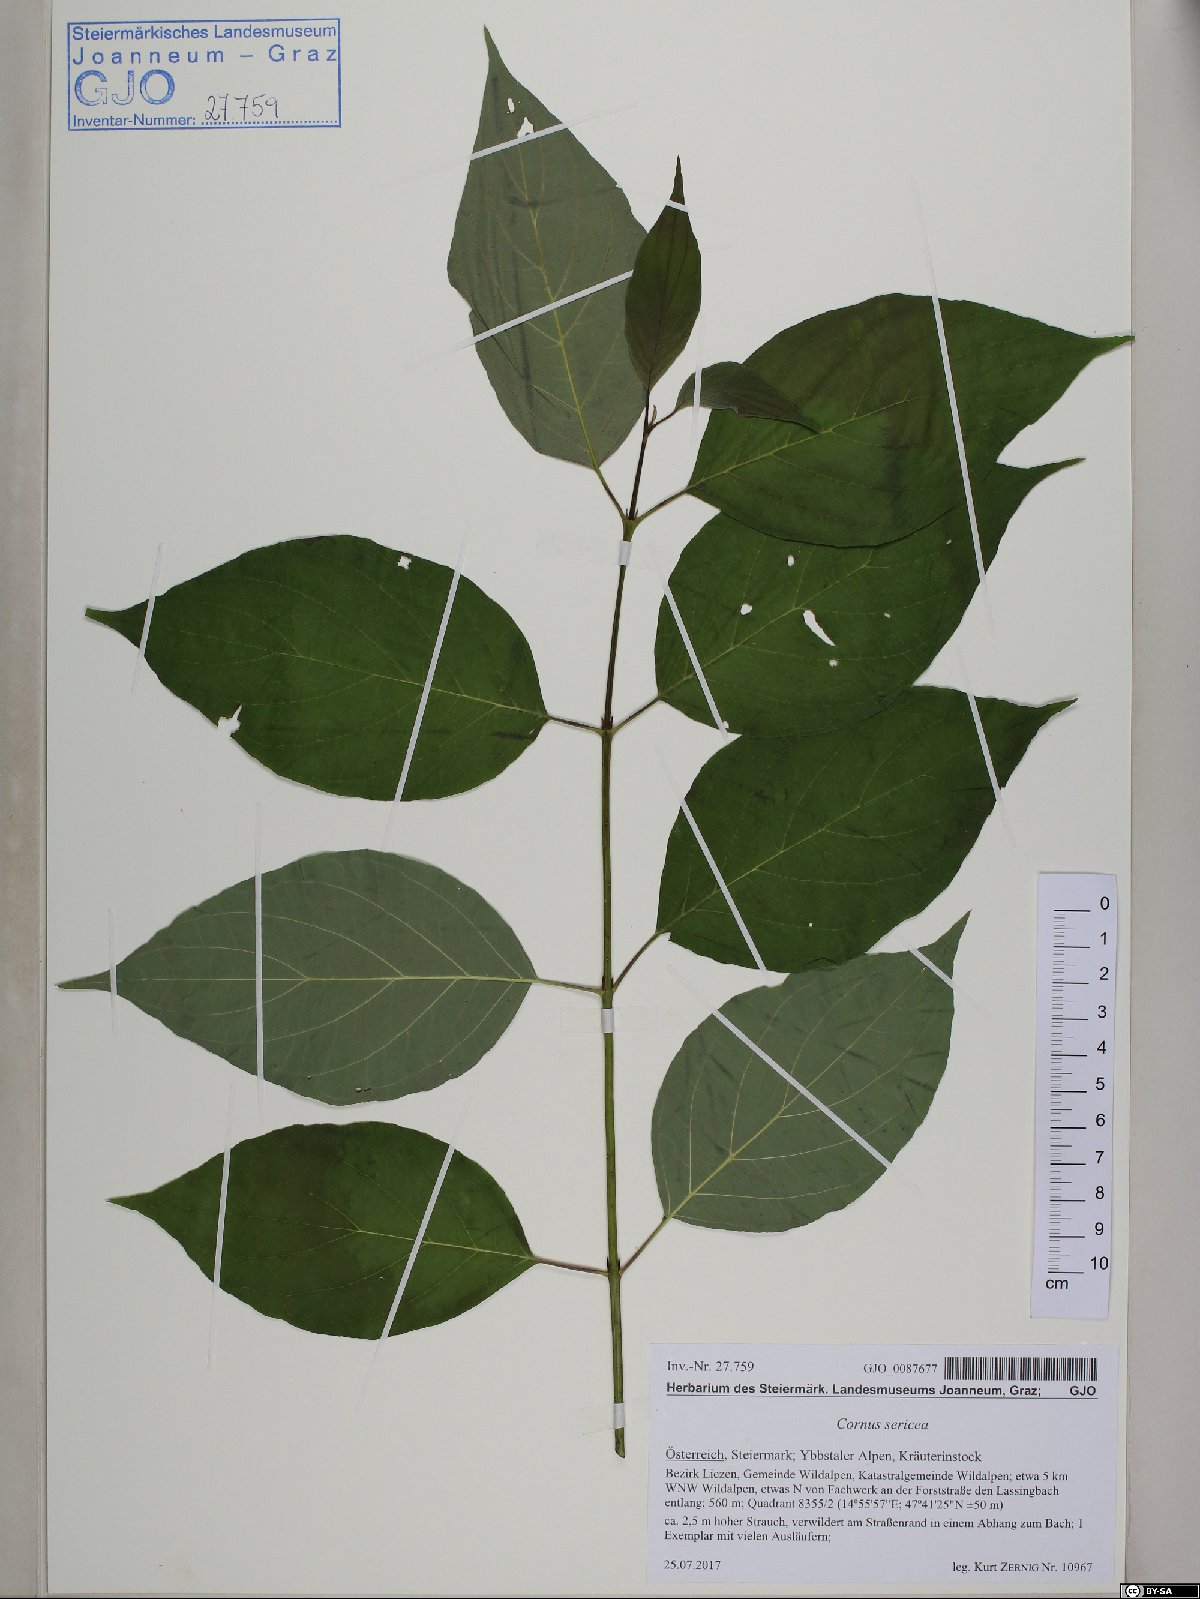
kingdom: Plantae
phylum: Tracheophyta
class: Magnoliopsida
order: Cornales
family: Cornaceae
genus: Cornus
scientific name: Cornus sericea
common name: Red-osier dogwood
